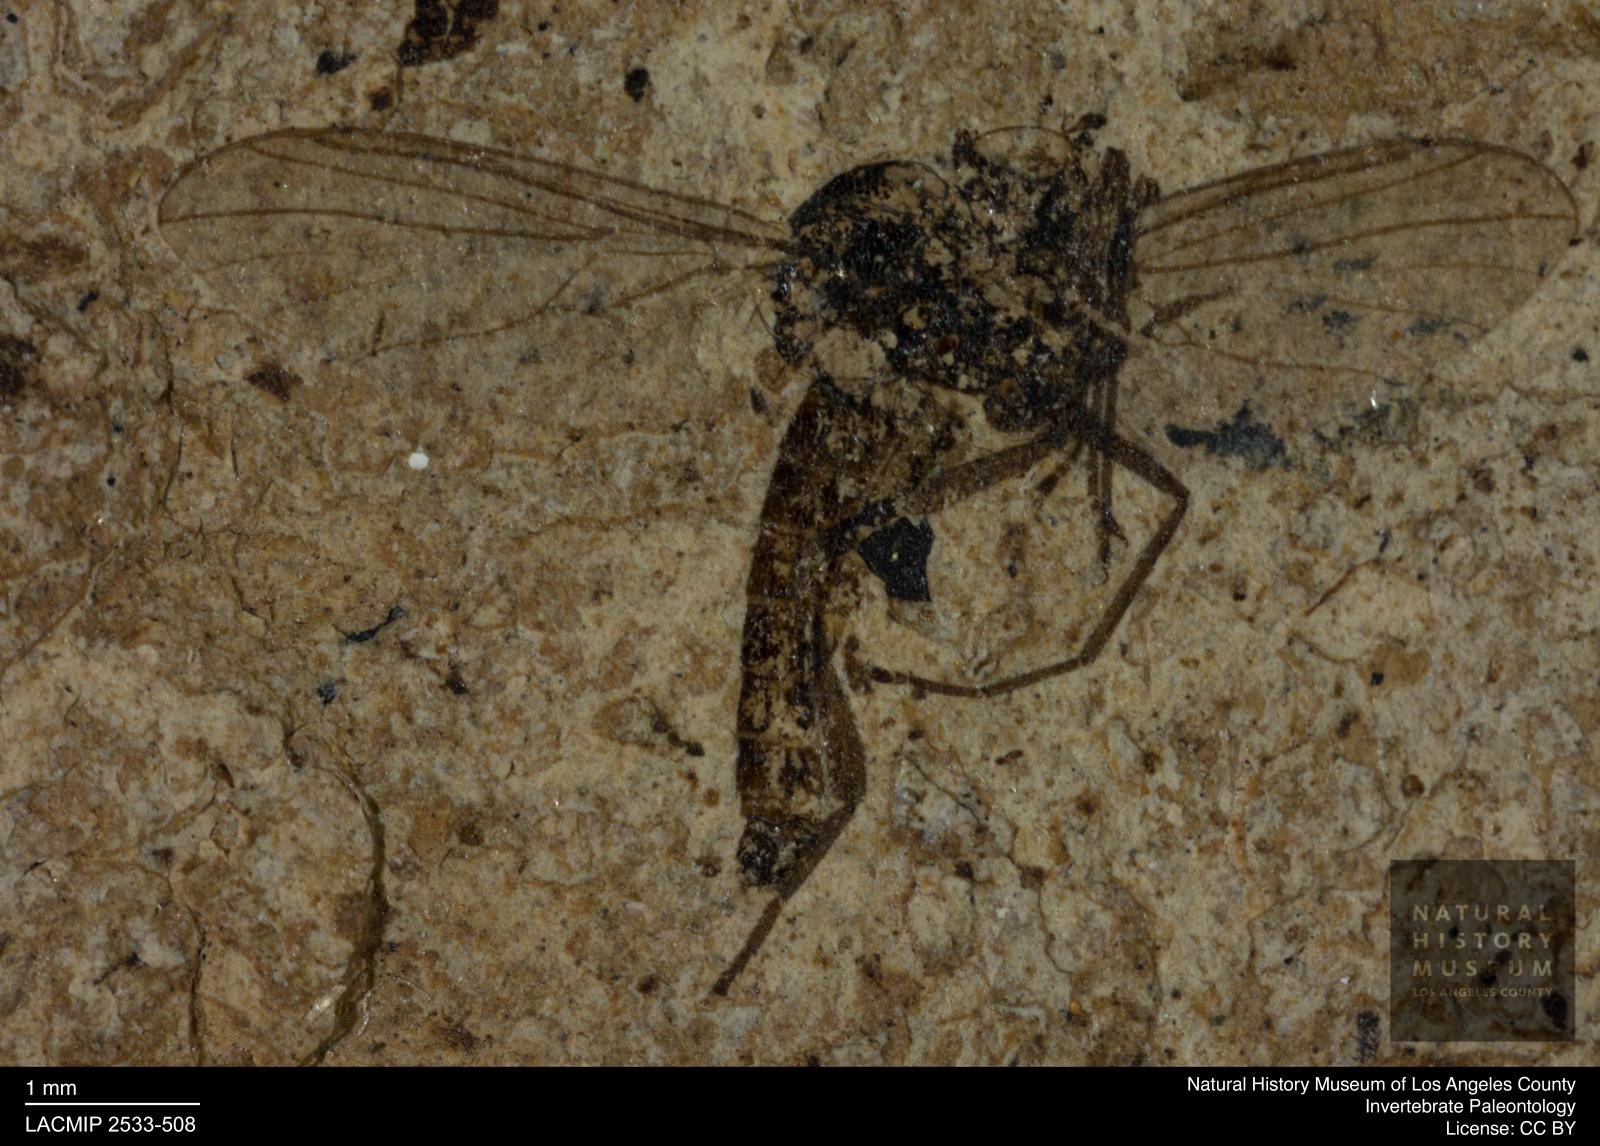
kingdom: Animalia
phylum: Arthropoda
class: Insecta
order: Diptera
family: Empididae
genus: Rhamphomyia
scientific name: Rhamphomyia fulvescens
